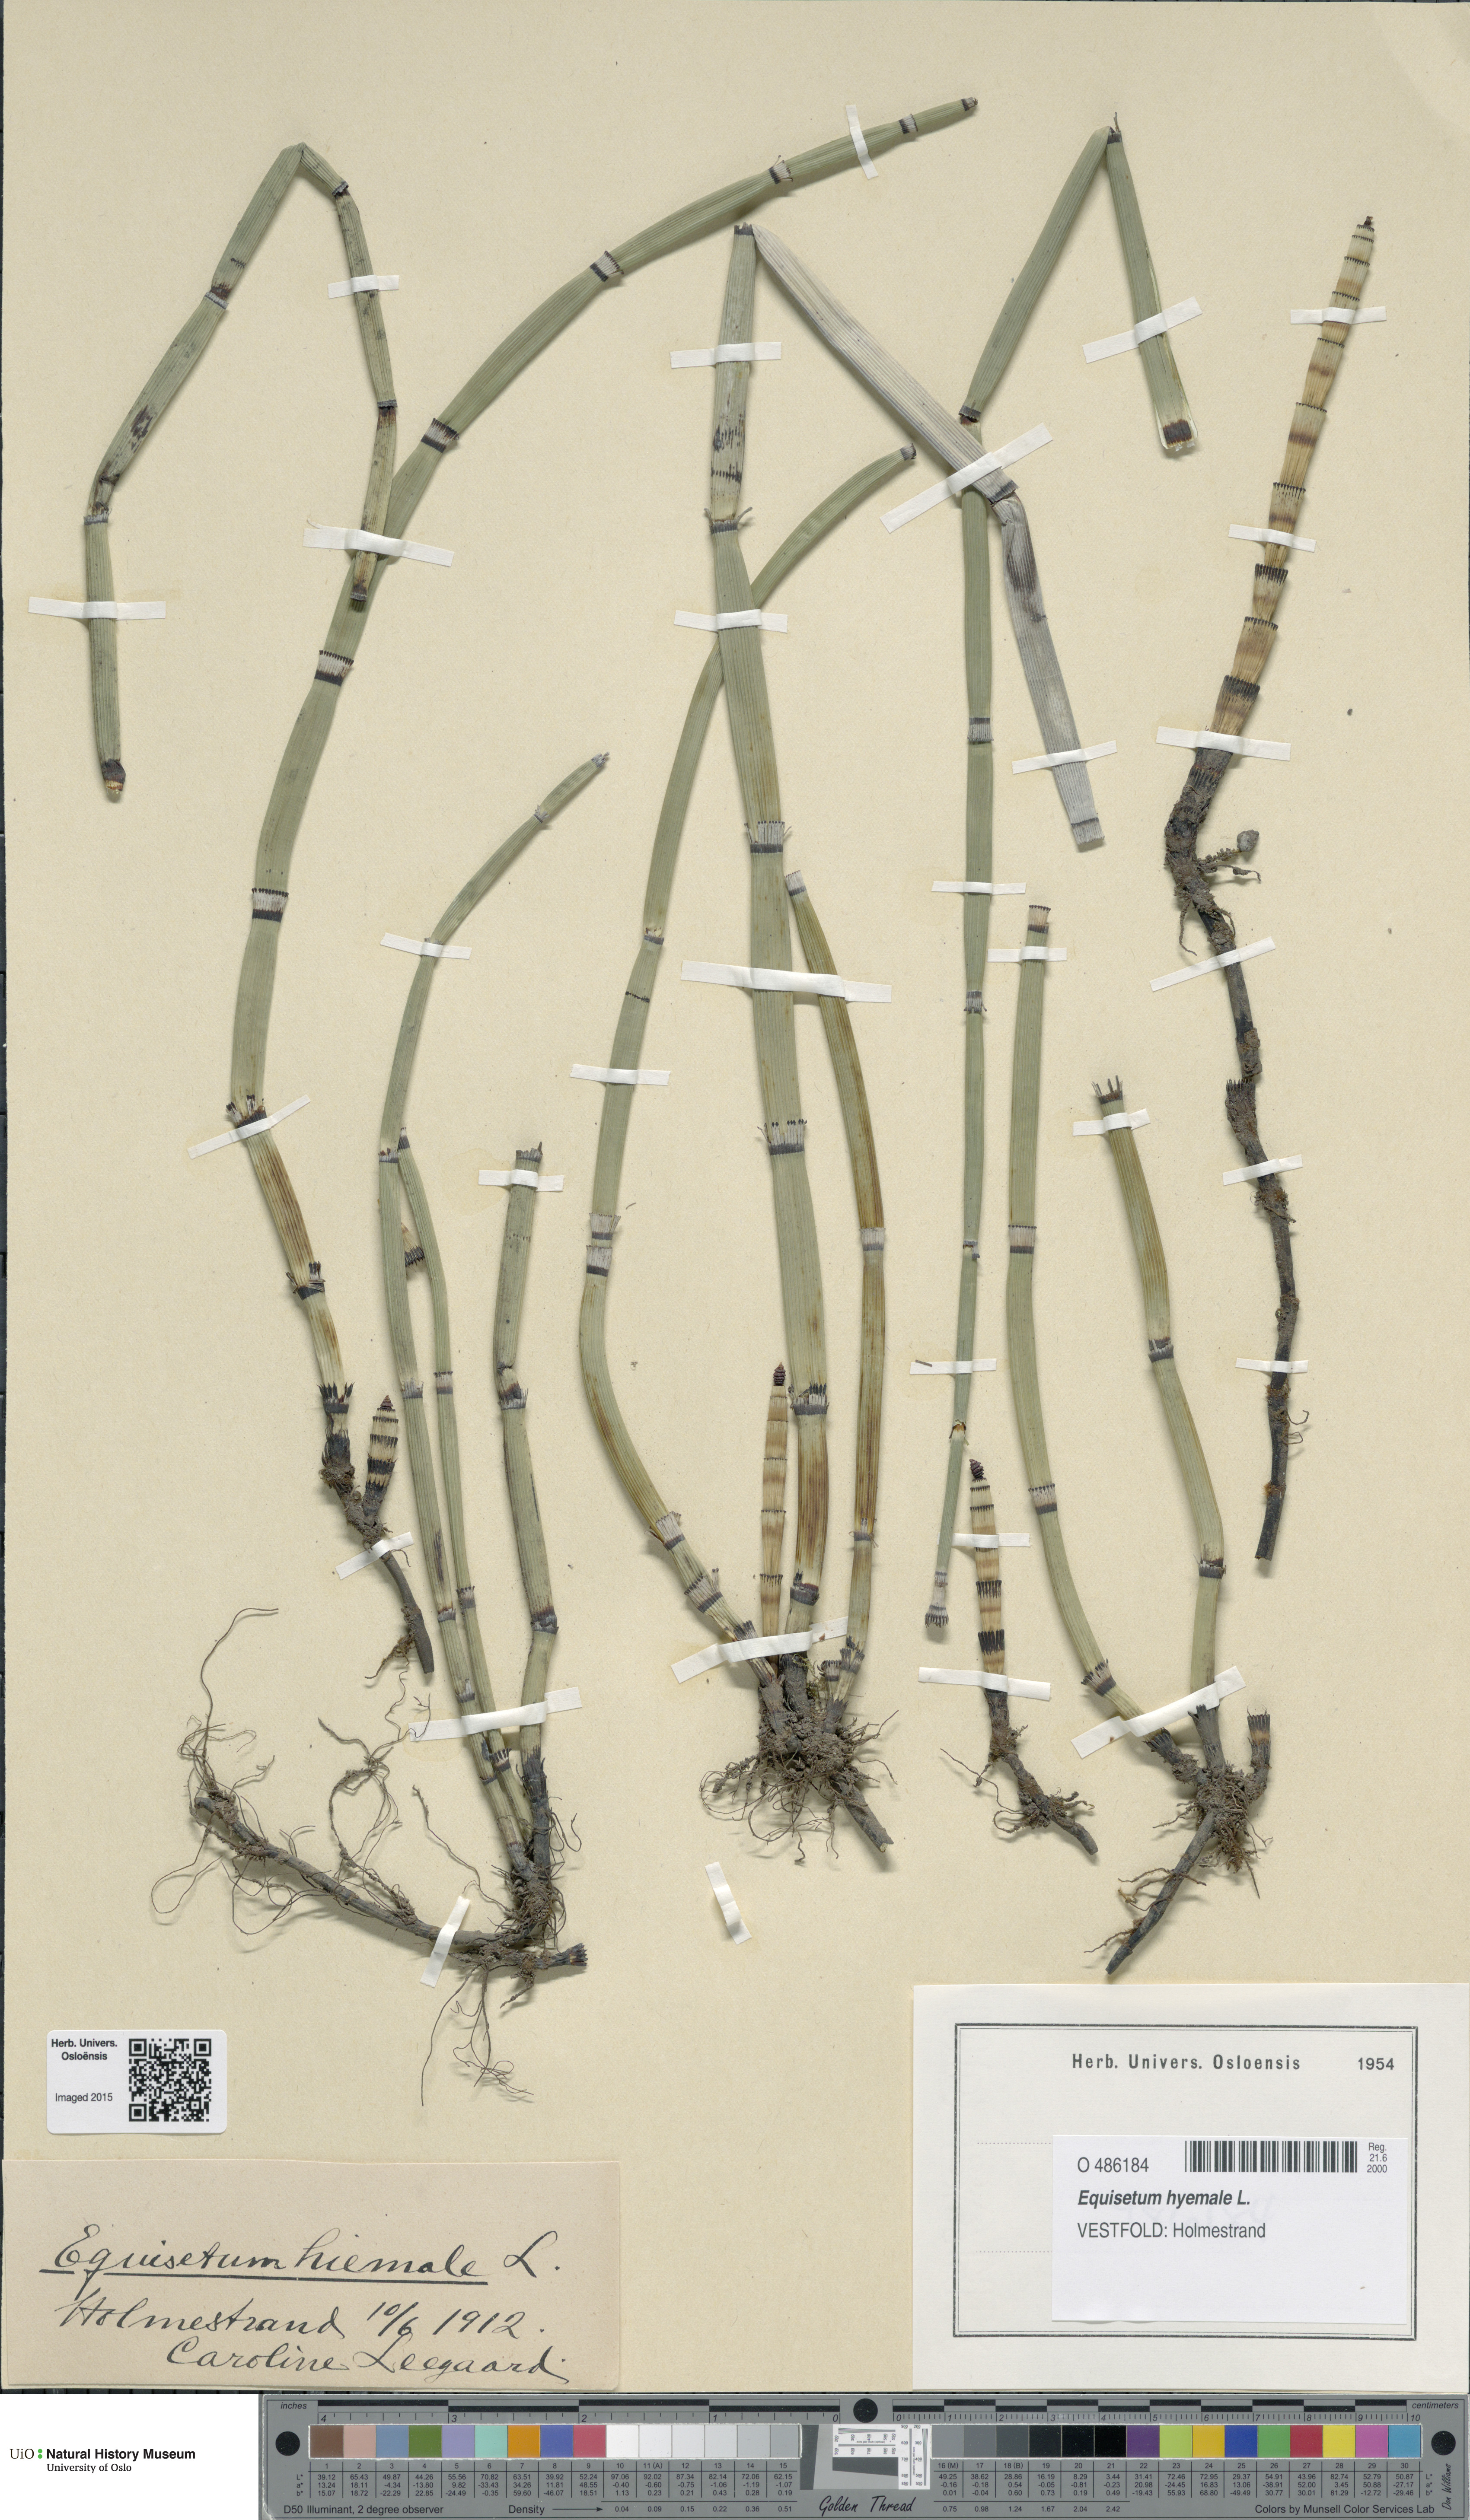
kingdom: Plantae
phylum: Tracheophyta
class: Polypodiopsida
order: Equisetales
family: Equisetaceae
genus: Equisetum
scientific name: Equisetum hyemale
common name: Rough horsetail
